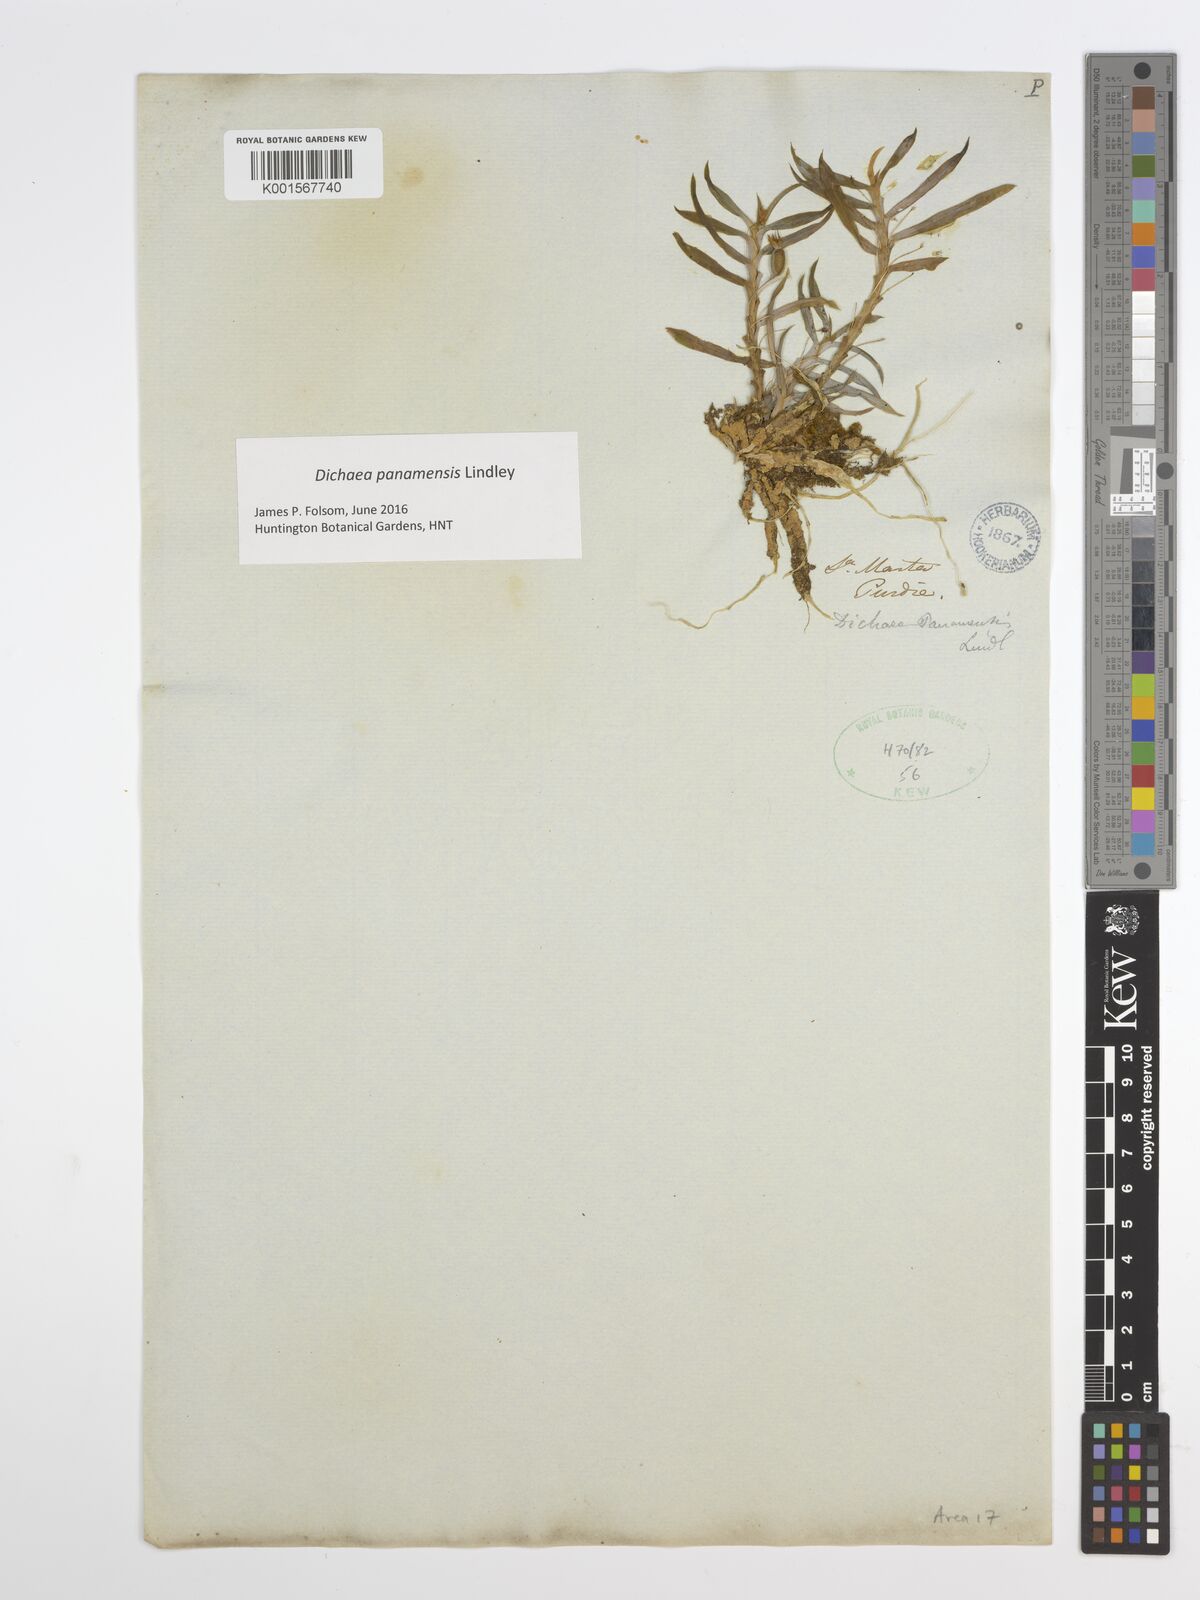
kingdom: Plantae
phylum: Tracheophyta
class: Liliopsida
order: Asparagales
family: Orchidaceae
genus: Dichaea
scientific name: Dichaea panamensis
